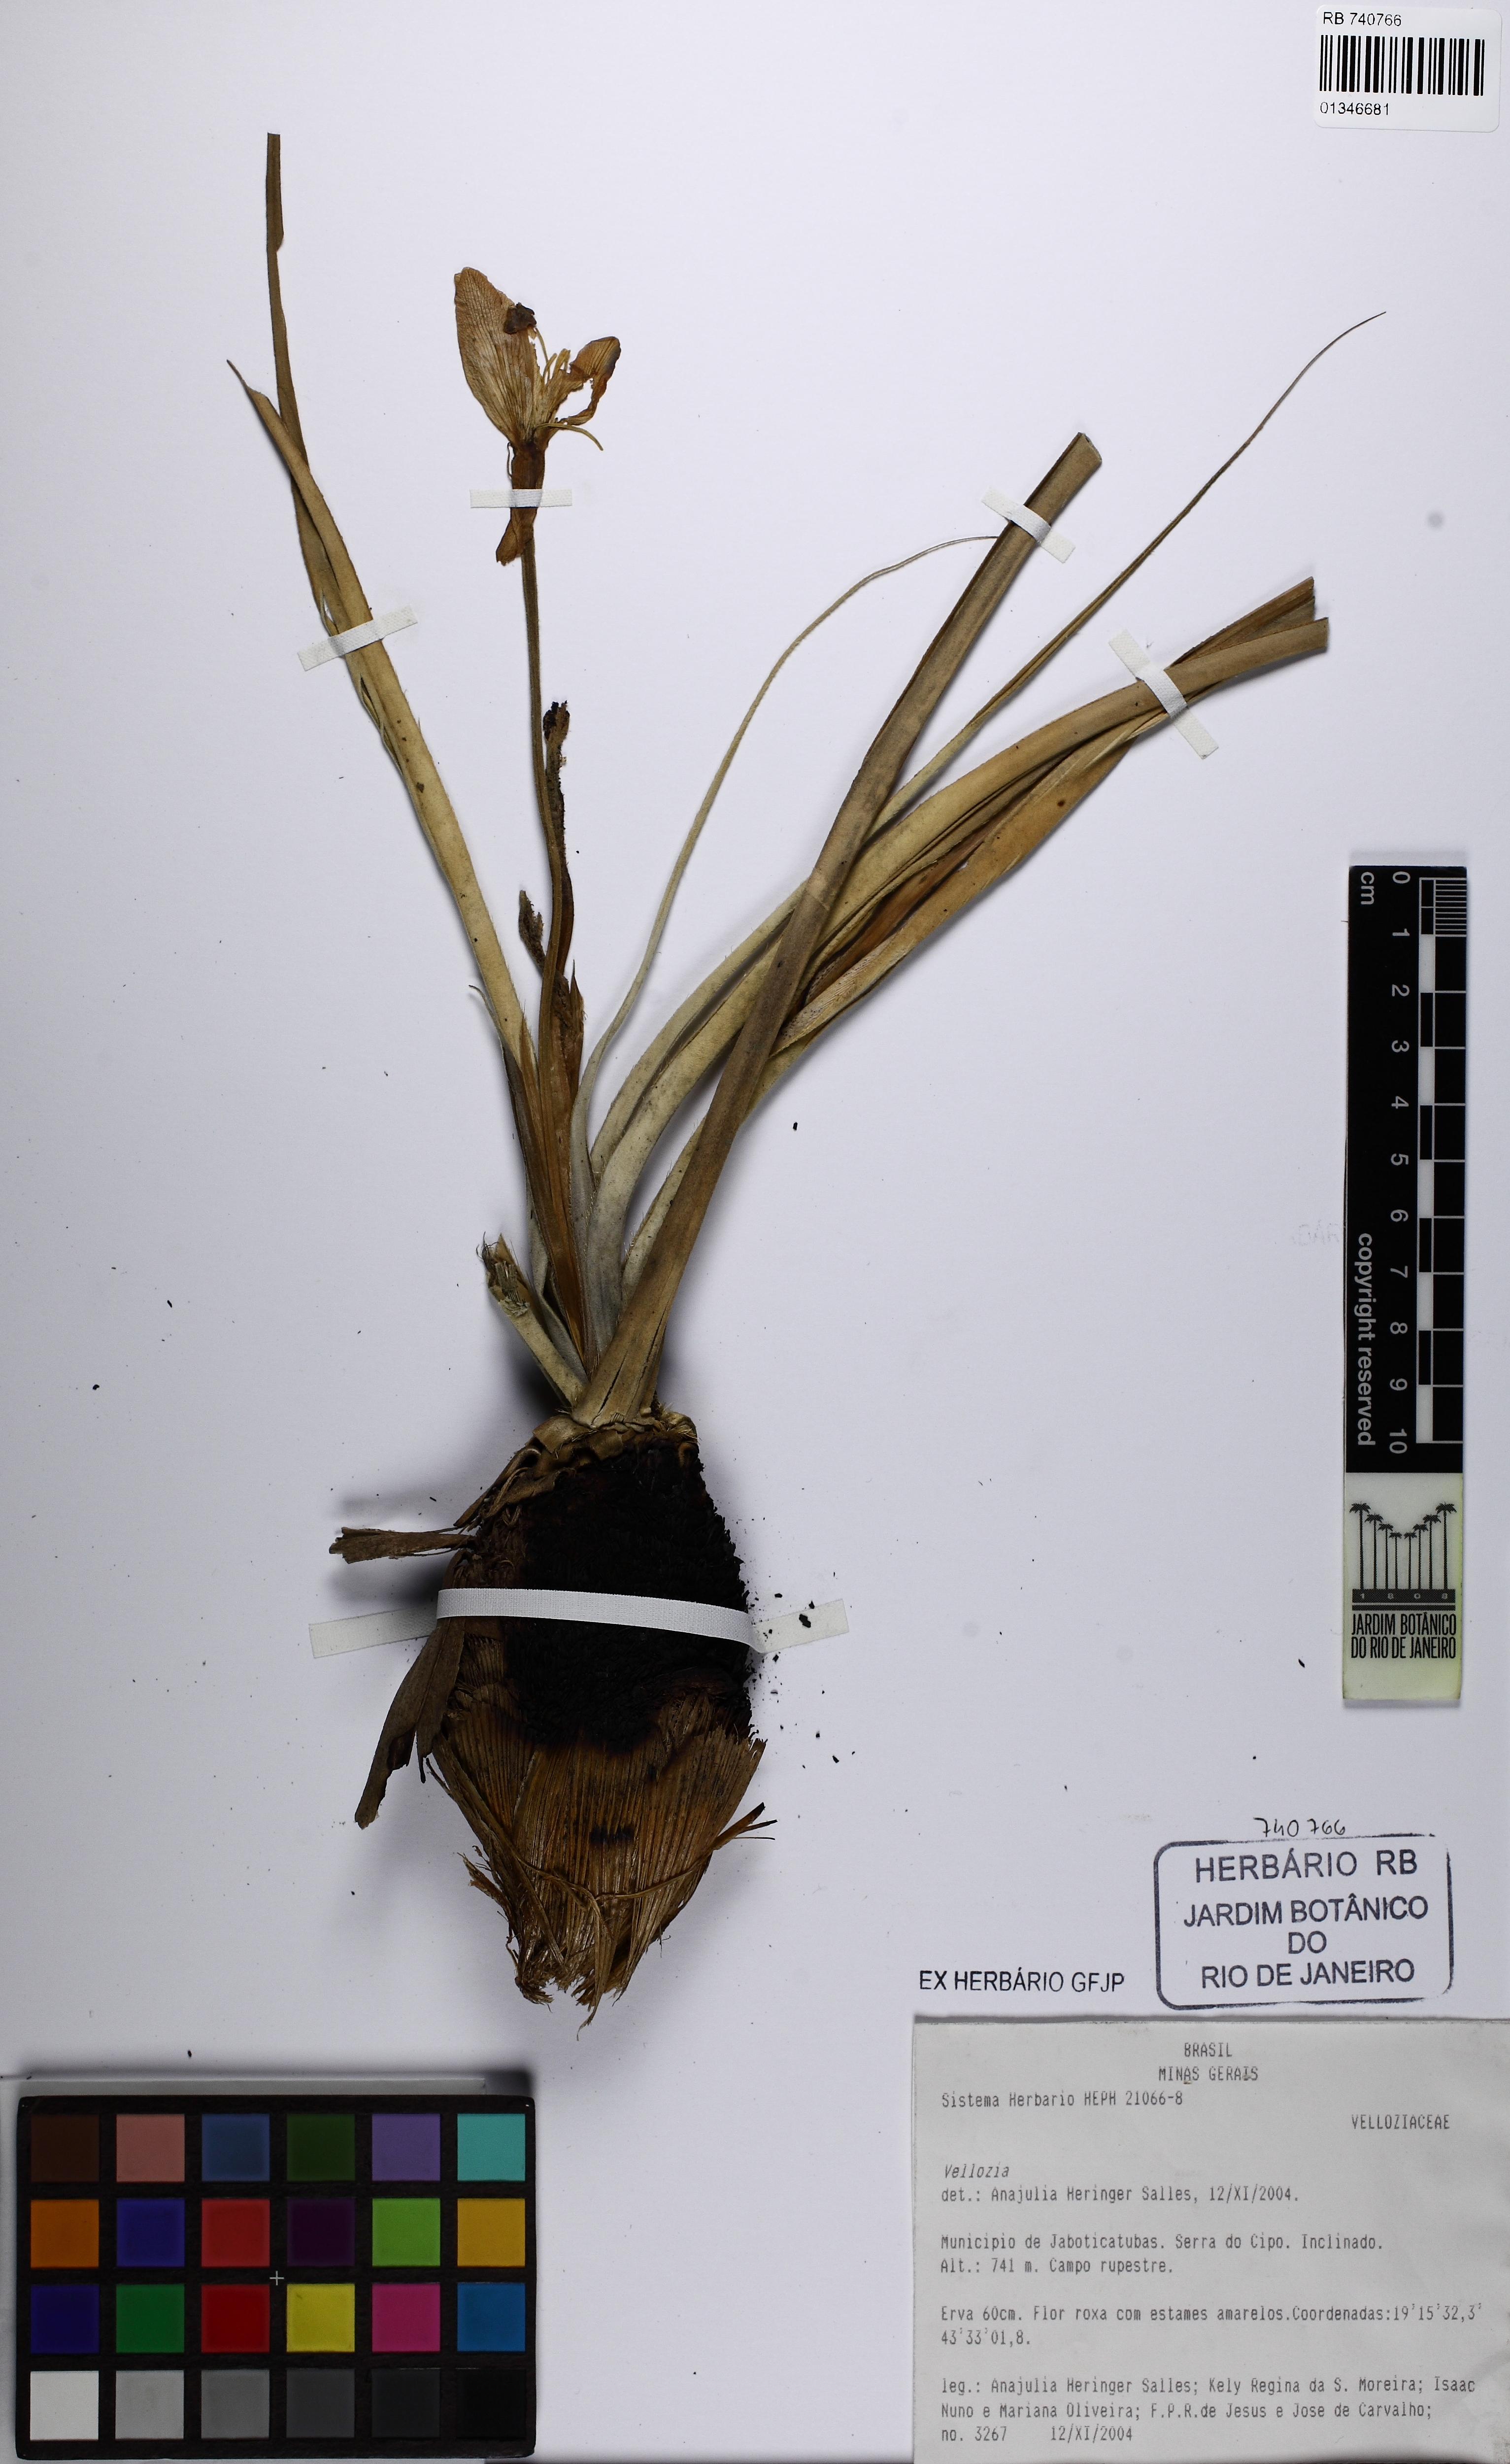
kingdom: Plantae
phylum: Tracheophyta
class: Liliopsida
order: Pandanales
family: Velloziaceae
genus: Vellozia
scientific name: Vellozia
